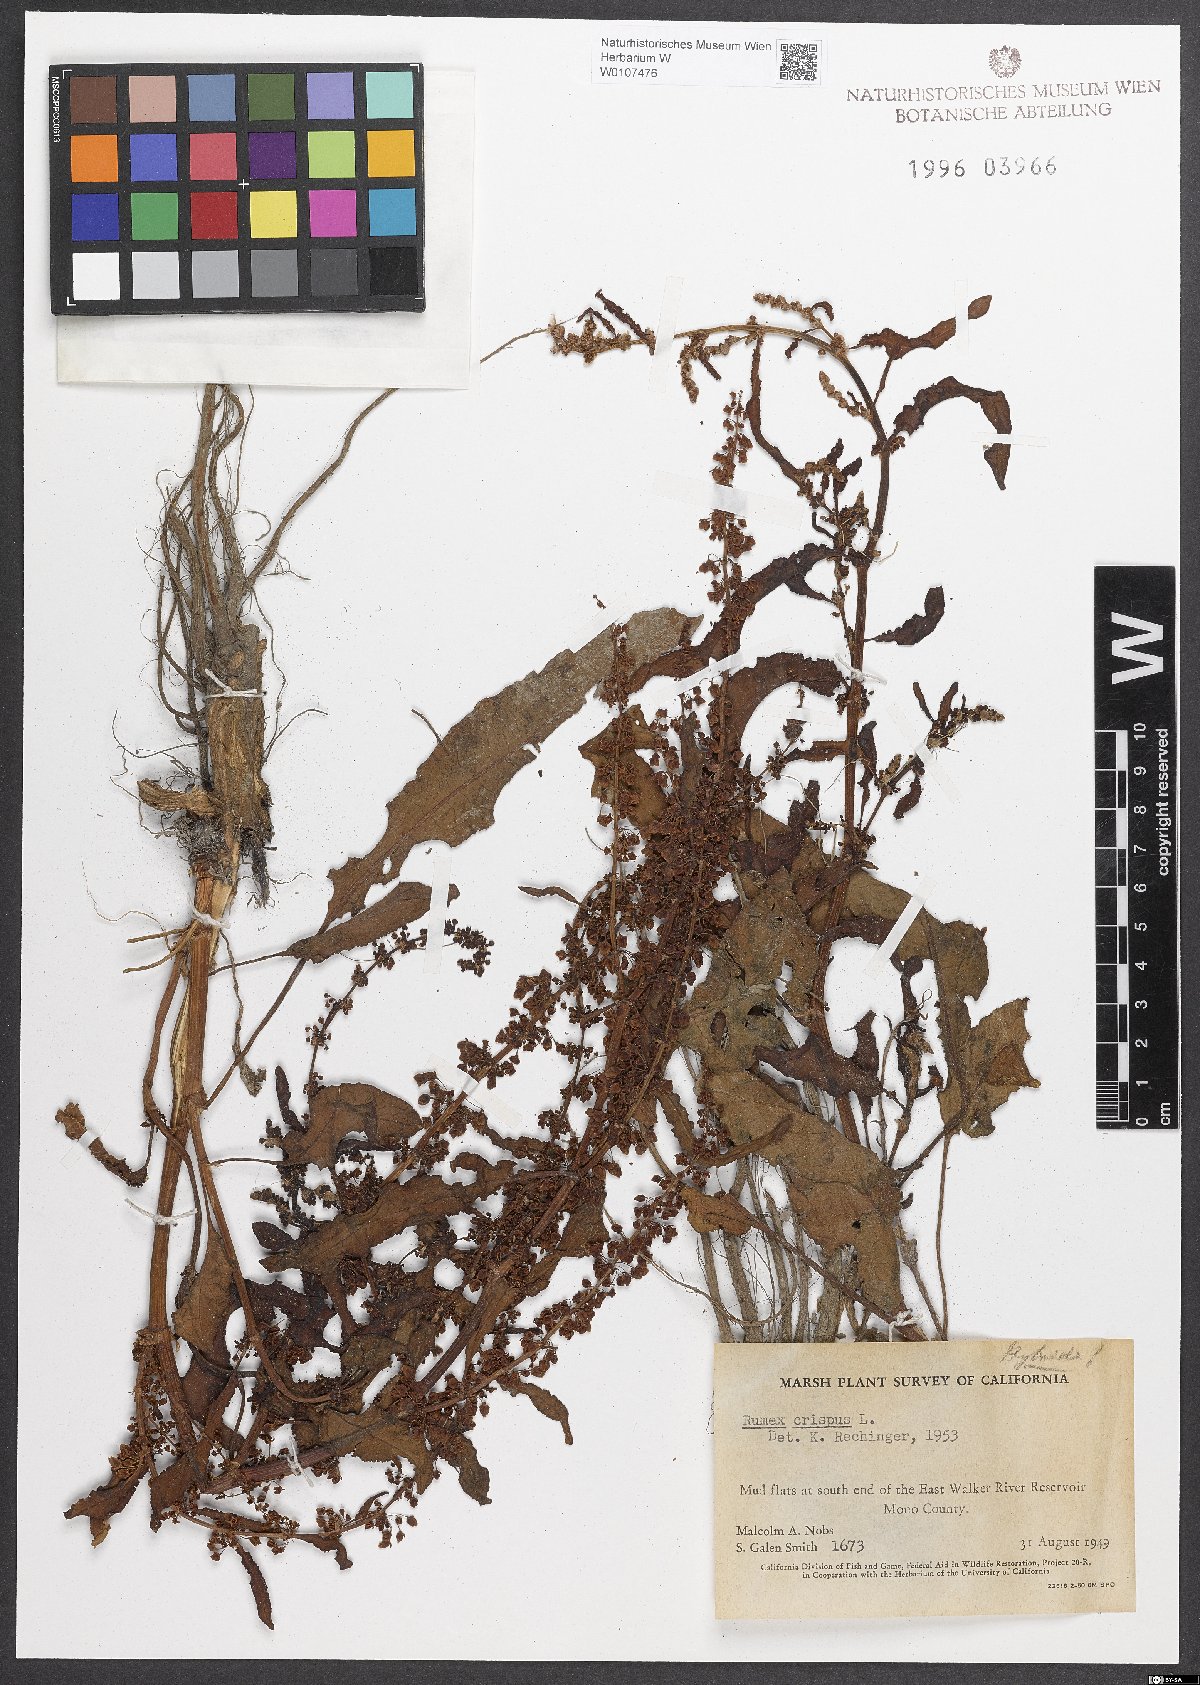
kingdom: Plantae
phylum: Tracheophyta
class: Magnoliopsida
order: Caryophyllales
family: Polygonaceae
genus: Rumex
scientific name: Rumex crispus
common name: Curled dock
